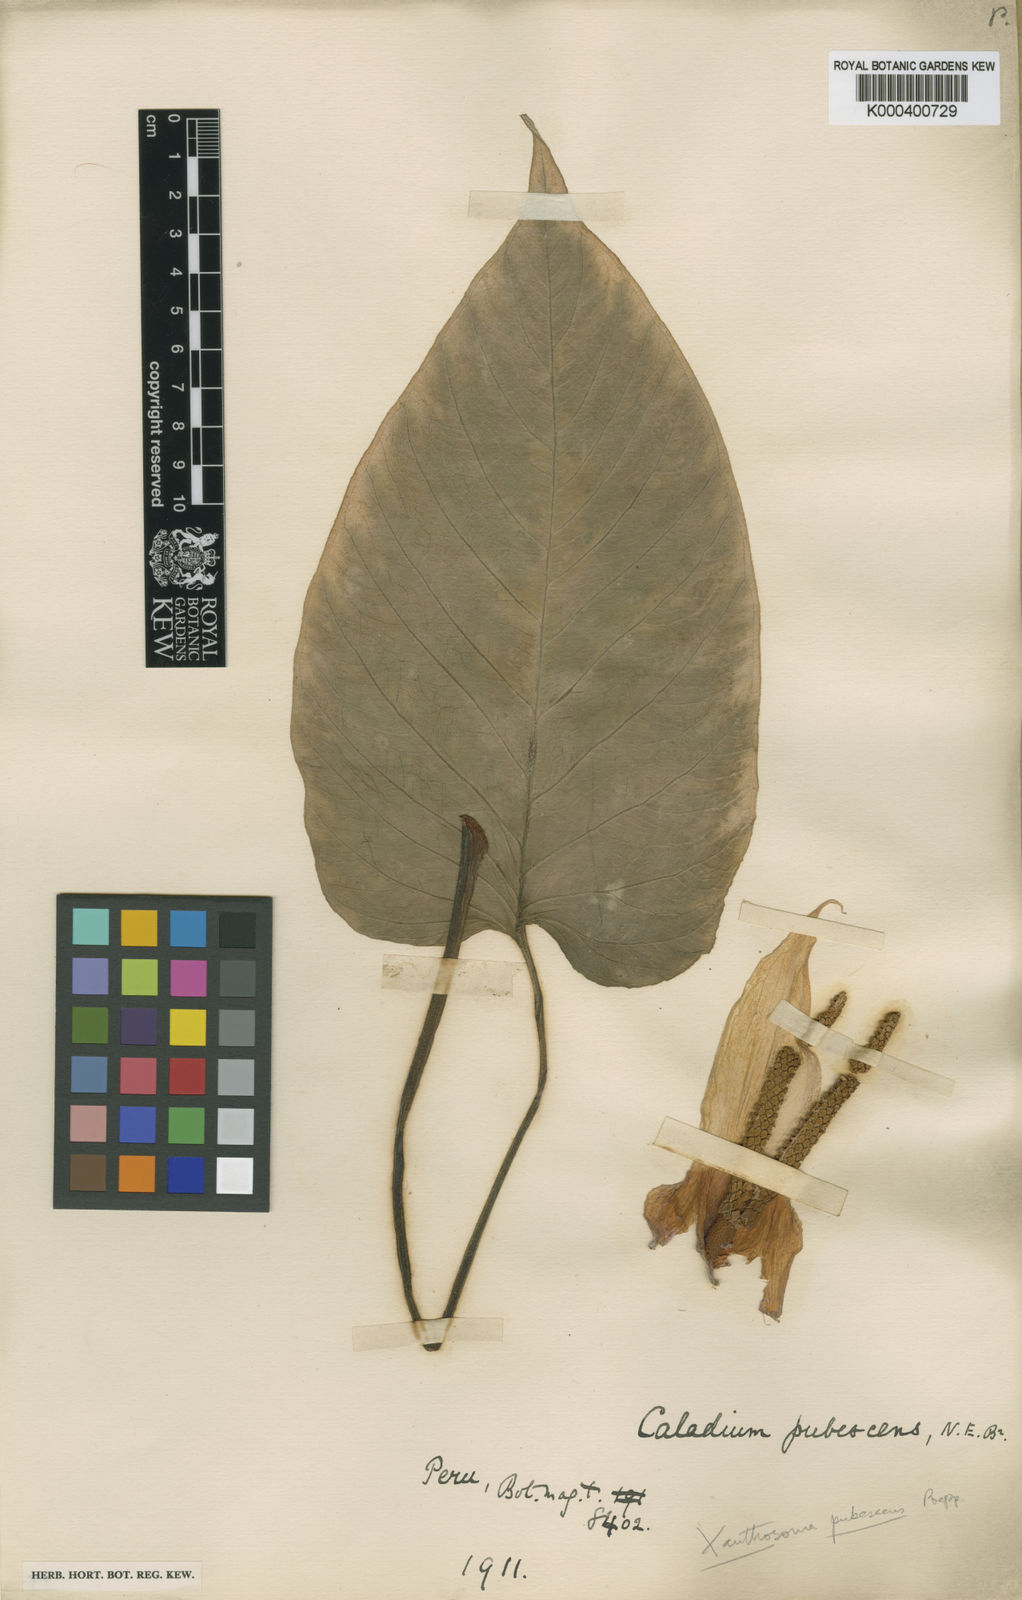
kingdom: Plantae
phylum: Tracheophyta
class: Liliopsida
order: Alismatales
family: Araceae
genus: Xanthosoma
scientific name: Xanthosoma pubescens
